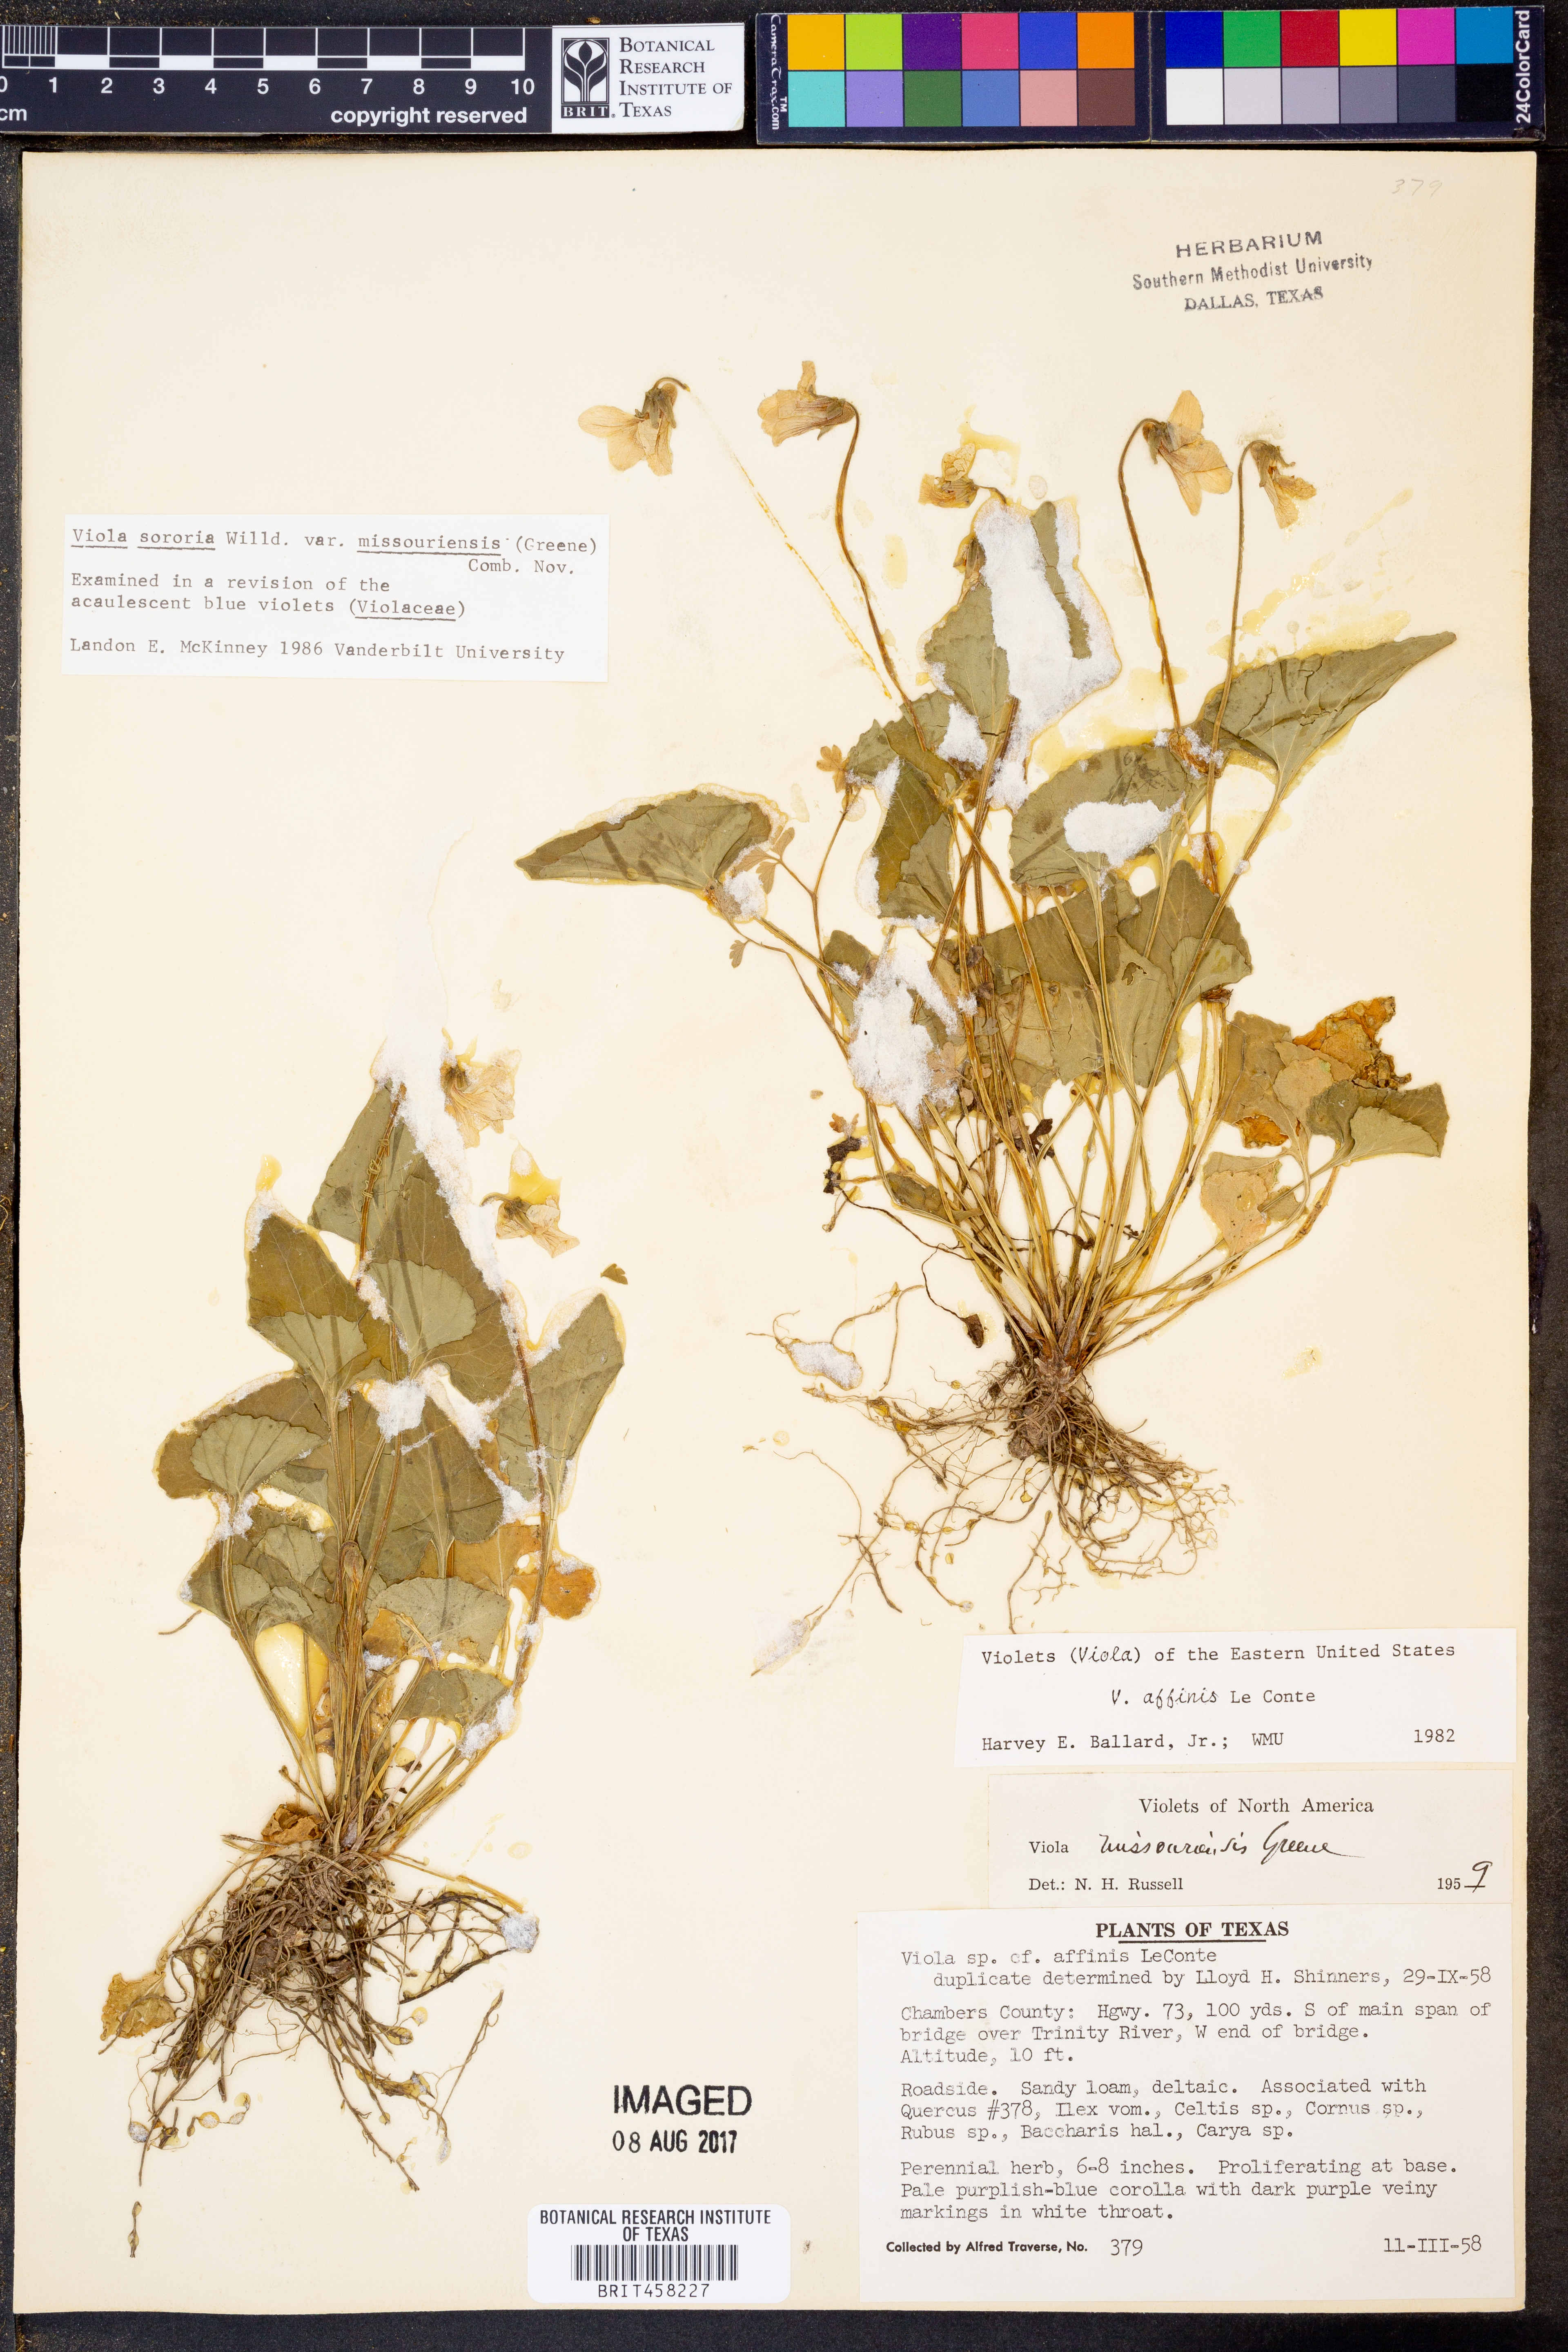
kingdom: Plantae
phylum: Tracheophyta
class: Magnoliopsida
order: Malpighiales
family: Violaceae
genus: Viola
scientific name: Viola missouriensis
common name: Missouri violet
